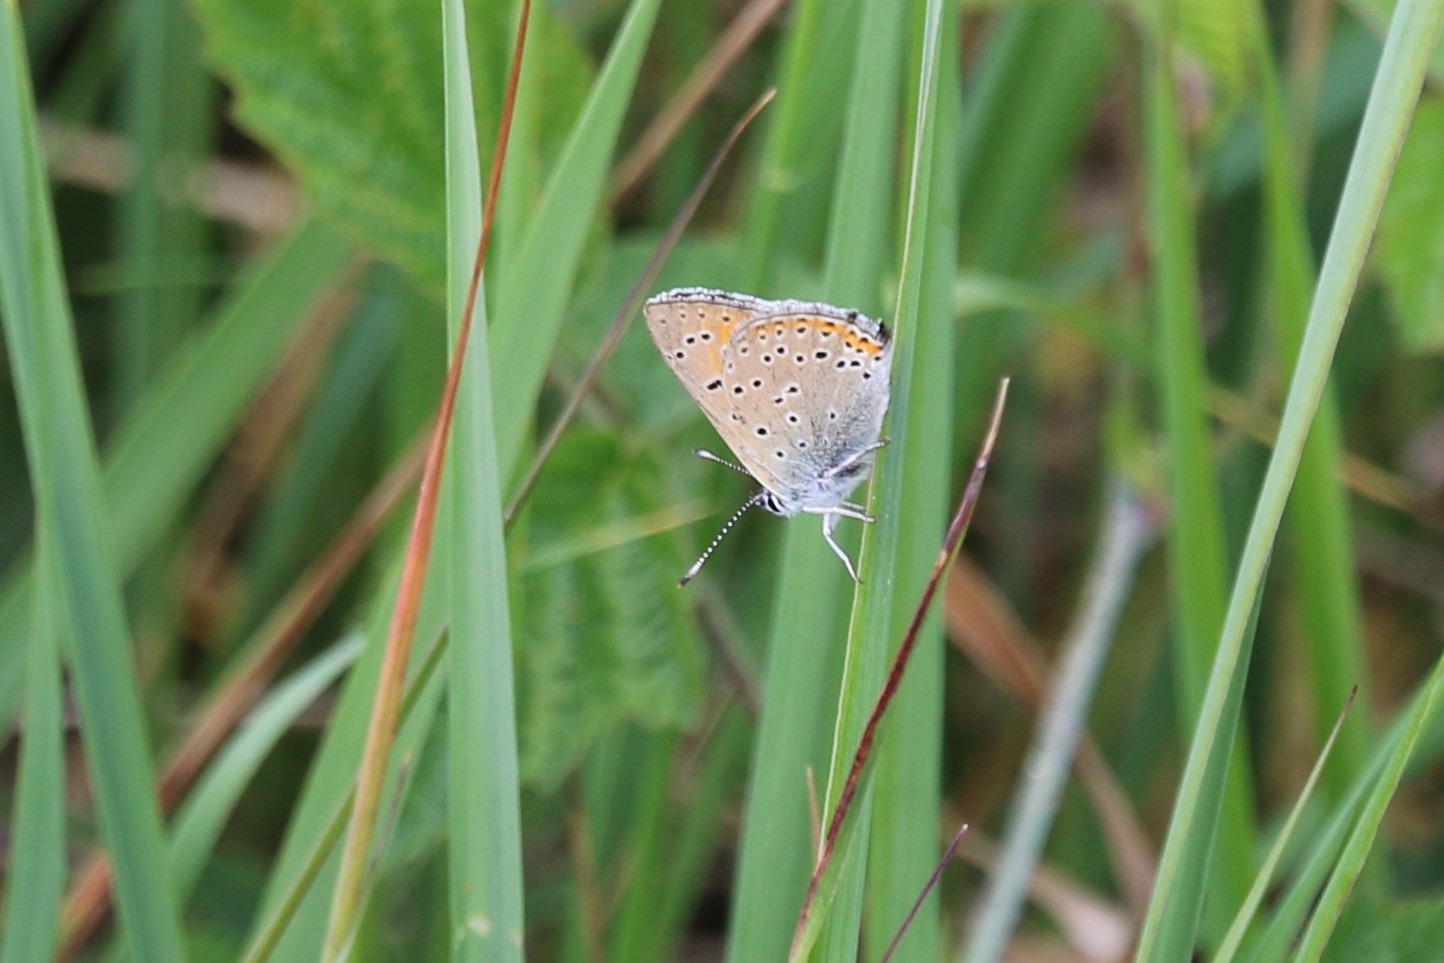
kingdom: Animalia
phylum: Arthropoda
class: Insecta
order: Lepidoptera
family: Lycaenidae
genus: Palaeochrysophanus
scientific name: Palaeochrysophanus hippothoe
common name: Violetrandet ildfugl
